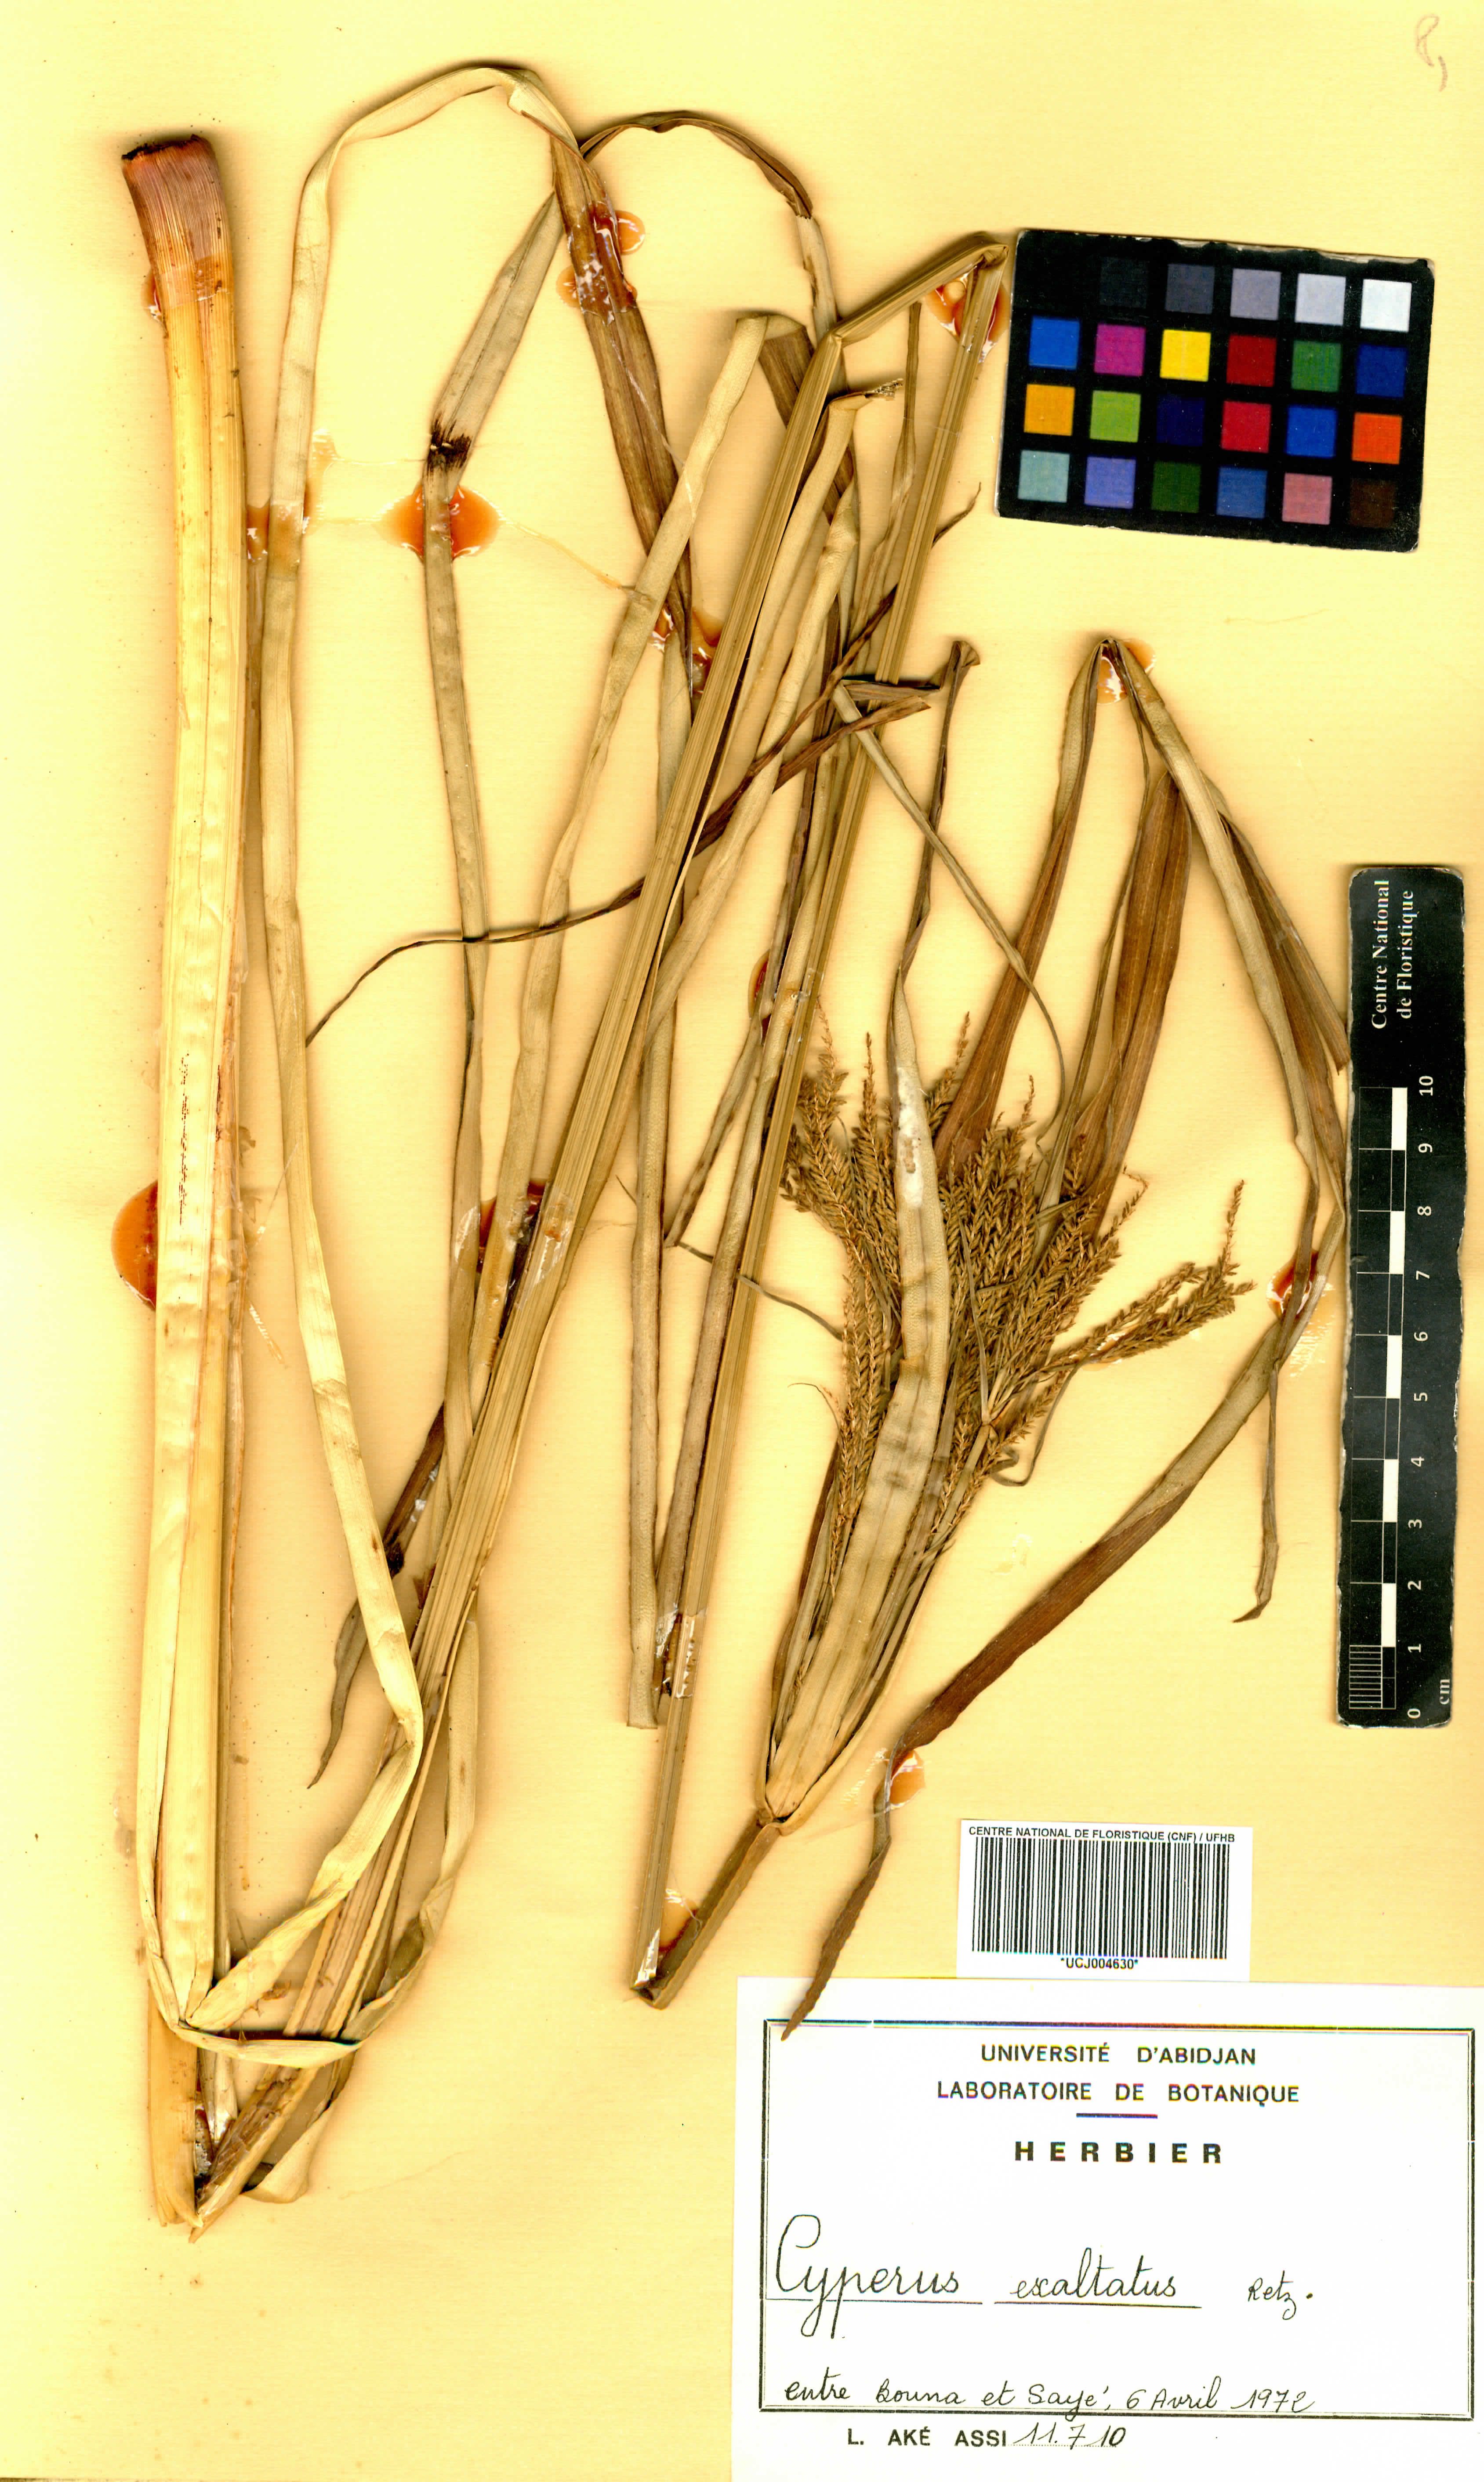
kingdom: Plantae
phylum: Tracheophyta
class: Liliopsida
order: Poales
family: Cyperaceae
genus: Cyperus
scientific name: Cyperus exaltatus
